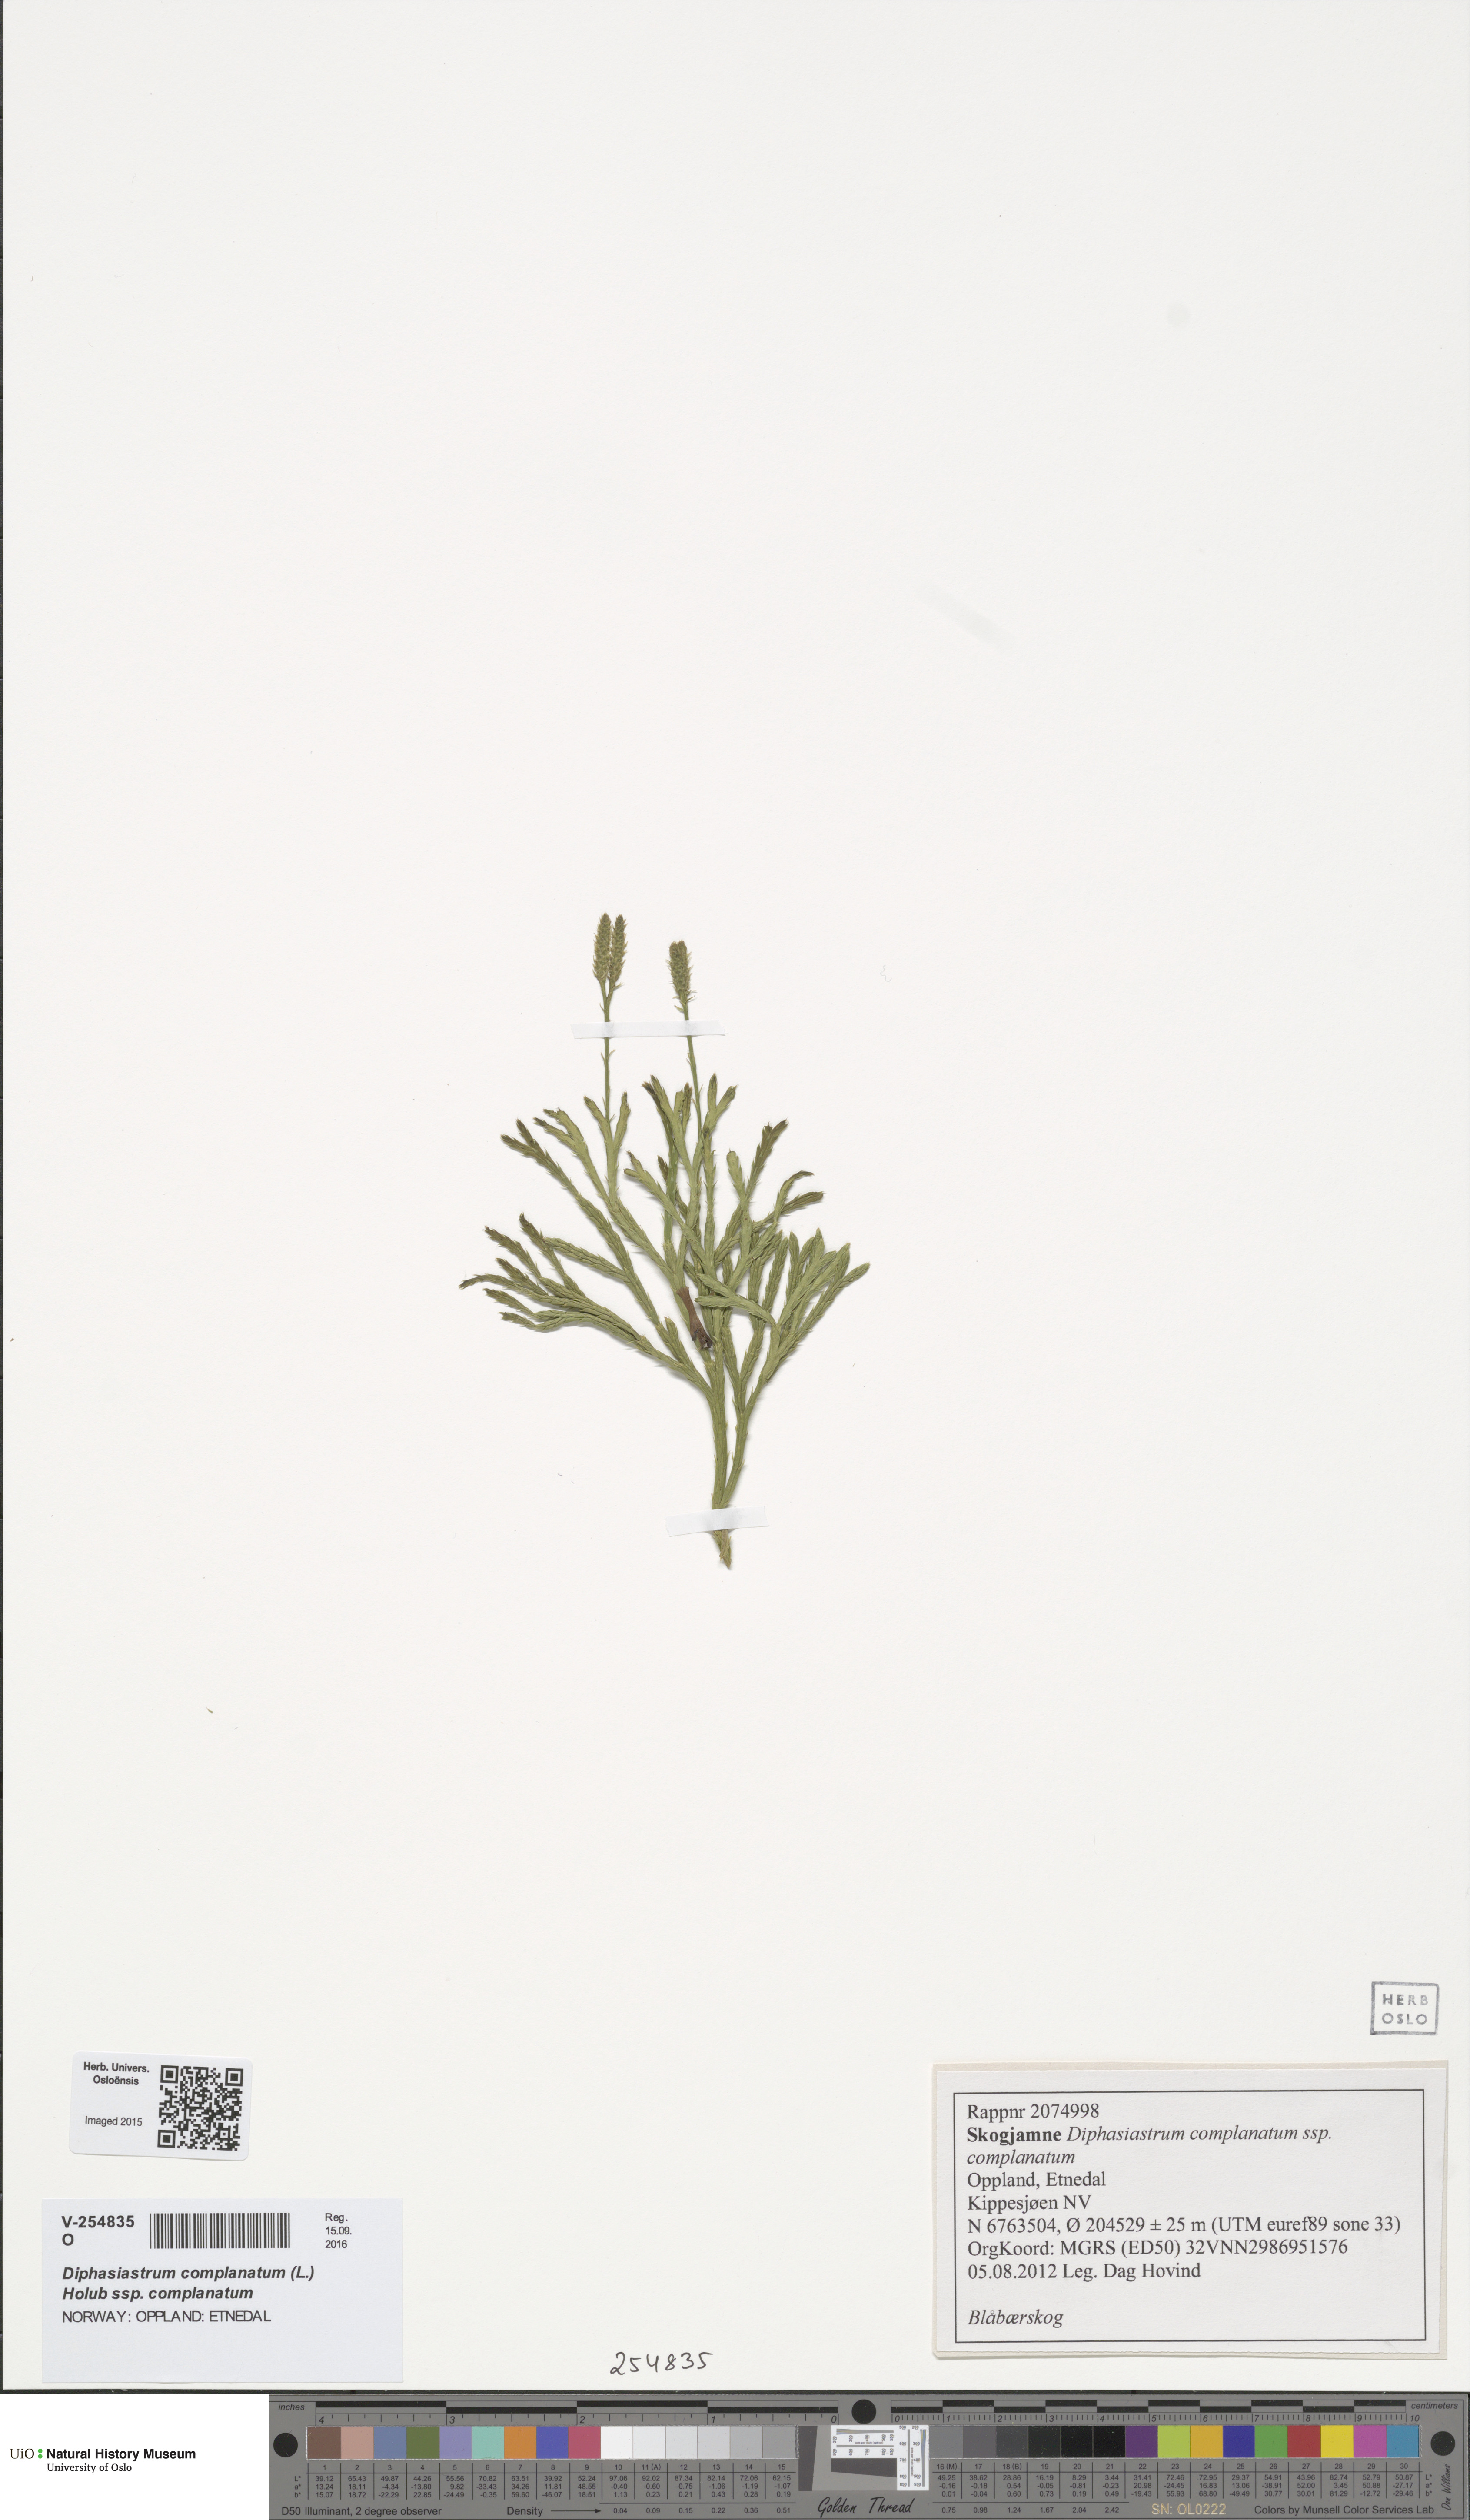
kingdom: Plantae
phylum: Tracheophyta
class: Lycopodiopsida
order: Lycopodiales
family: Lycopodiaceae
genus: Diphasiastrum
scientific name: Diphasiastrum complanatum
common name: Northern running-pine
